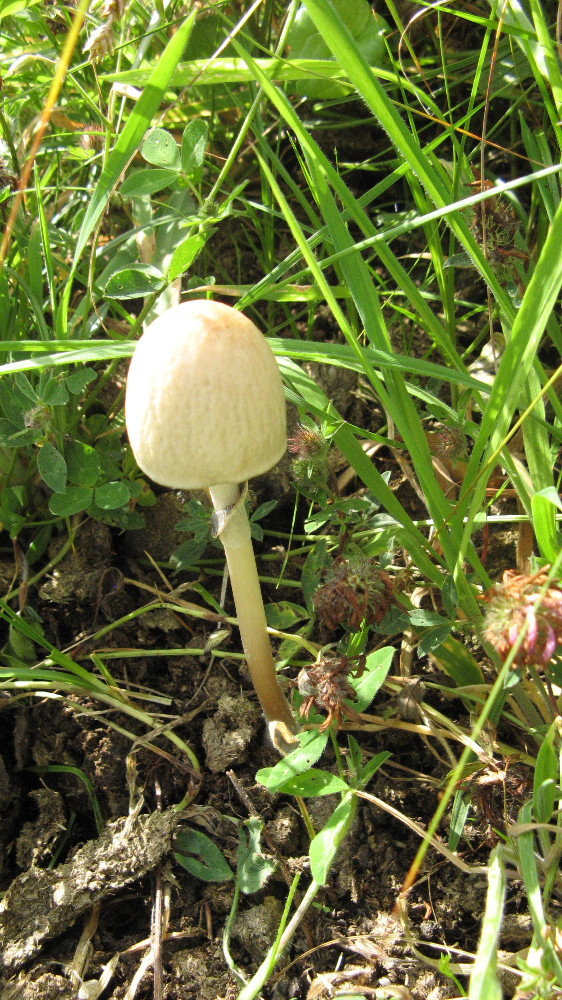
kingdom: Fungi
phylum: Basidiomycota
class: Agaricomycetes
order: Agaricales
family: Bolbitiaceae
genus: Panaeolus
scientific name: Panaeolus semiovatus
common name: ring-glanshat
